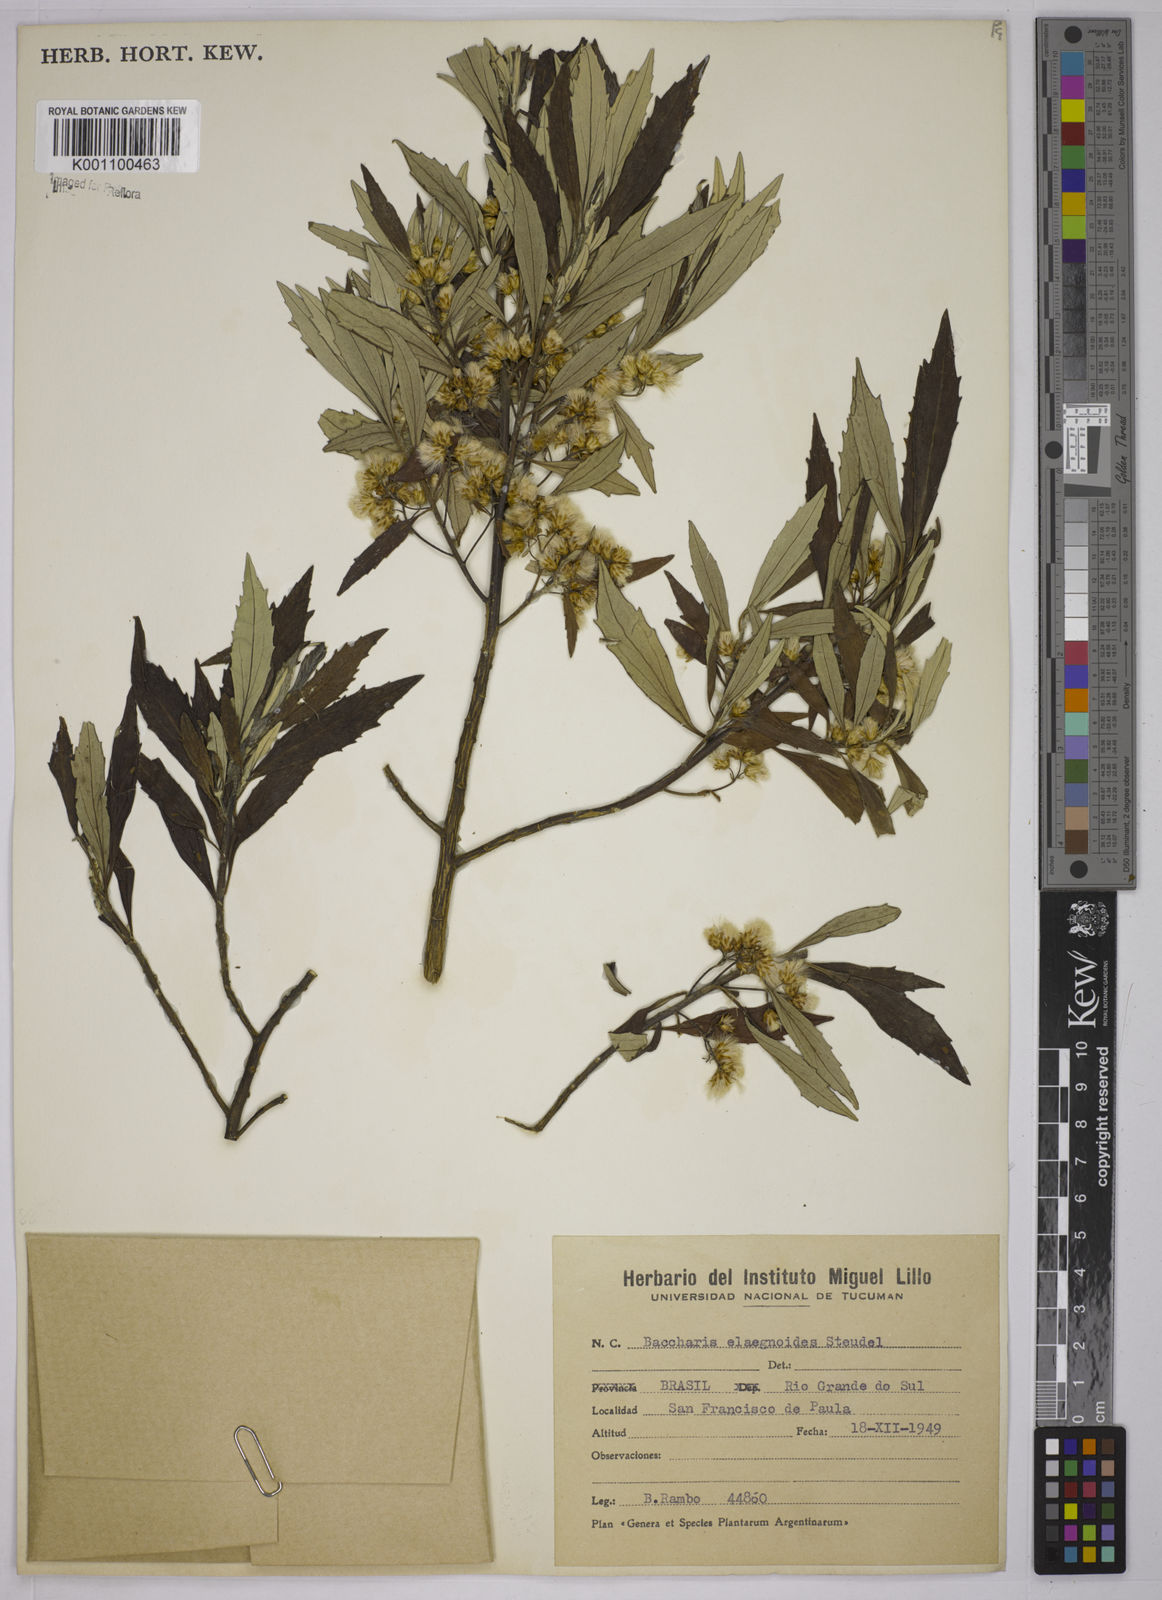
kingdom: Plantae
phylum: Tracheophyta
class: Magnoliopsida
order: Asterales
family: Asteraceae
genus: Baccharis
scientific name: Baccharis
